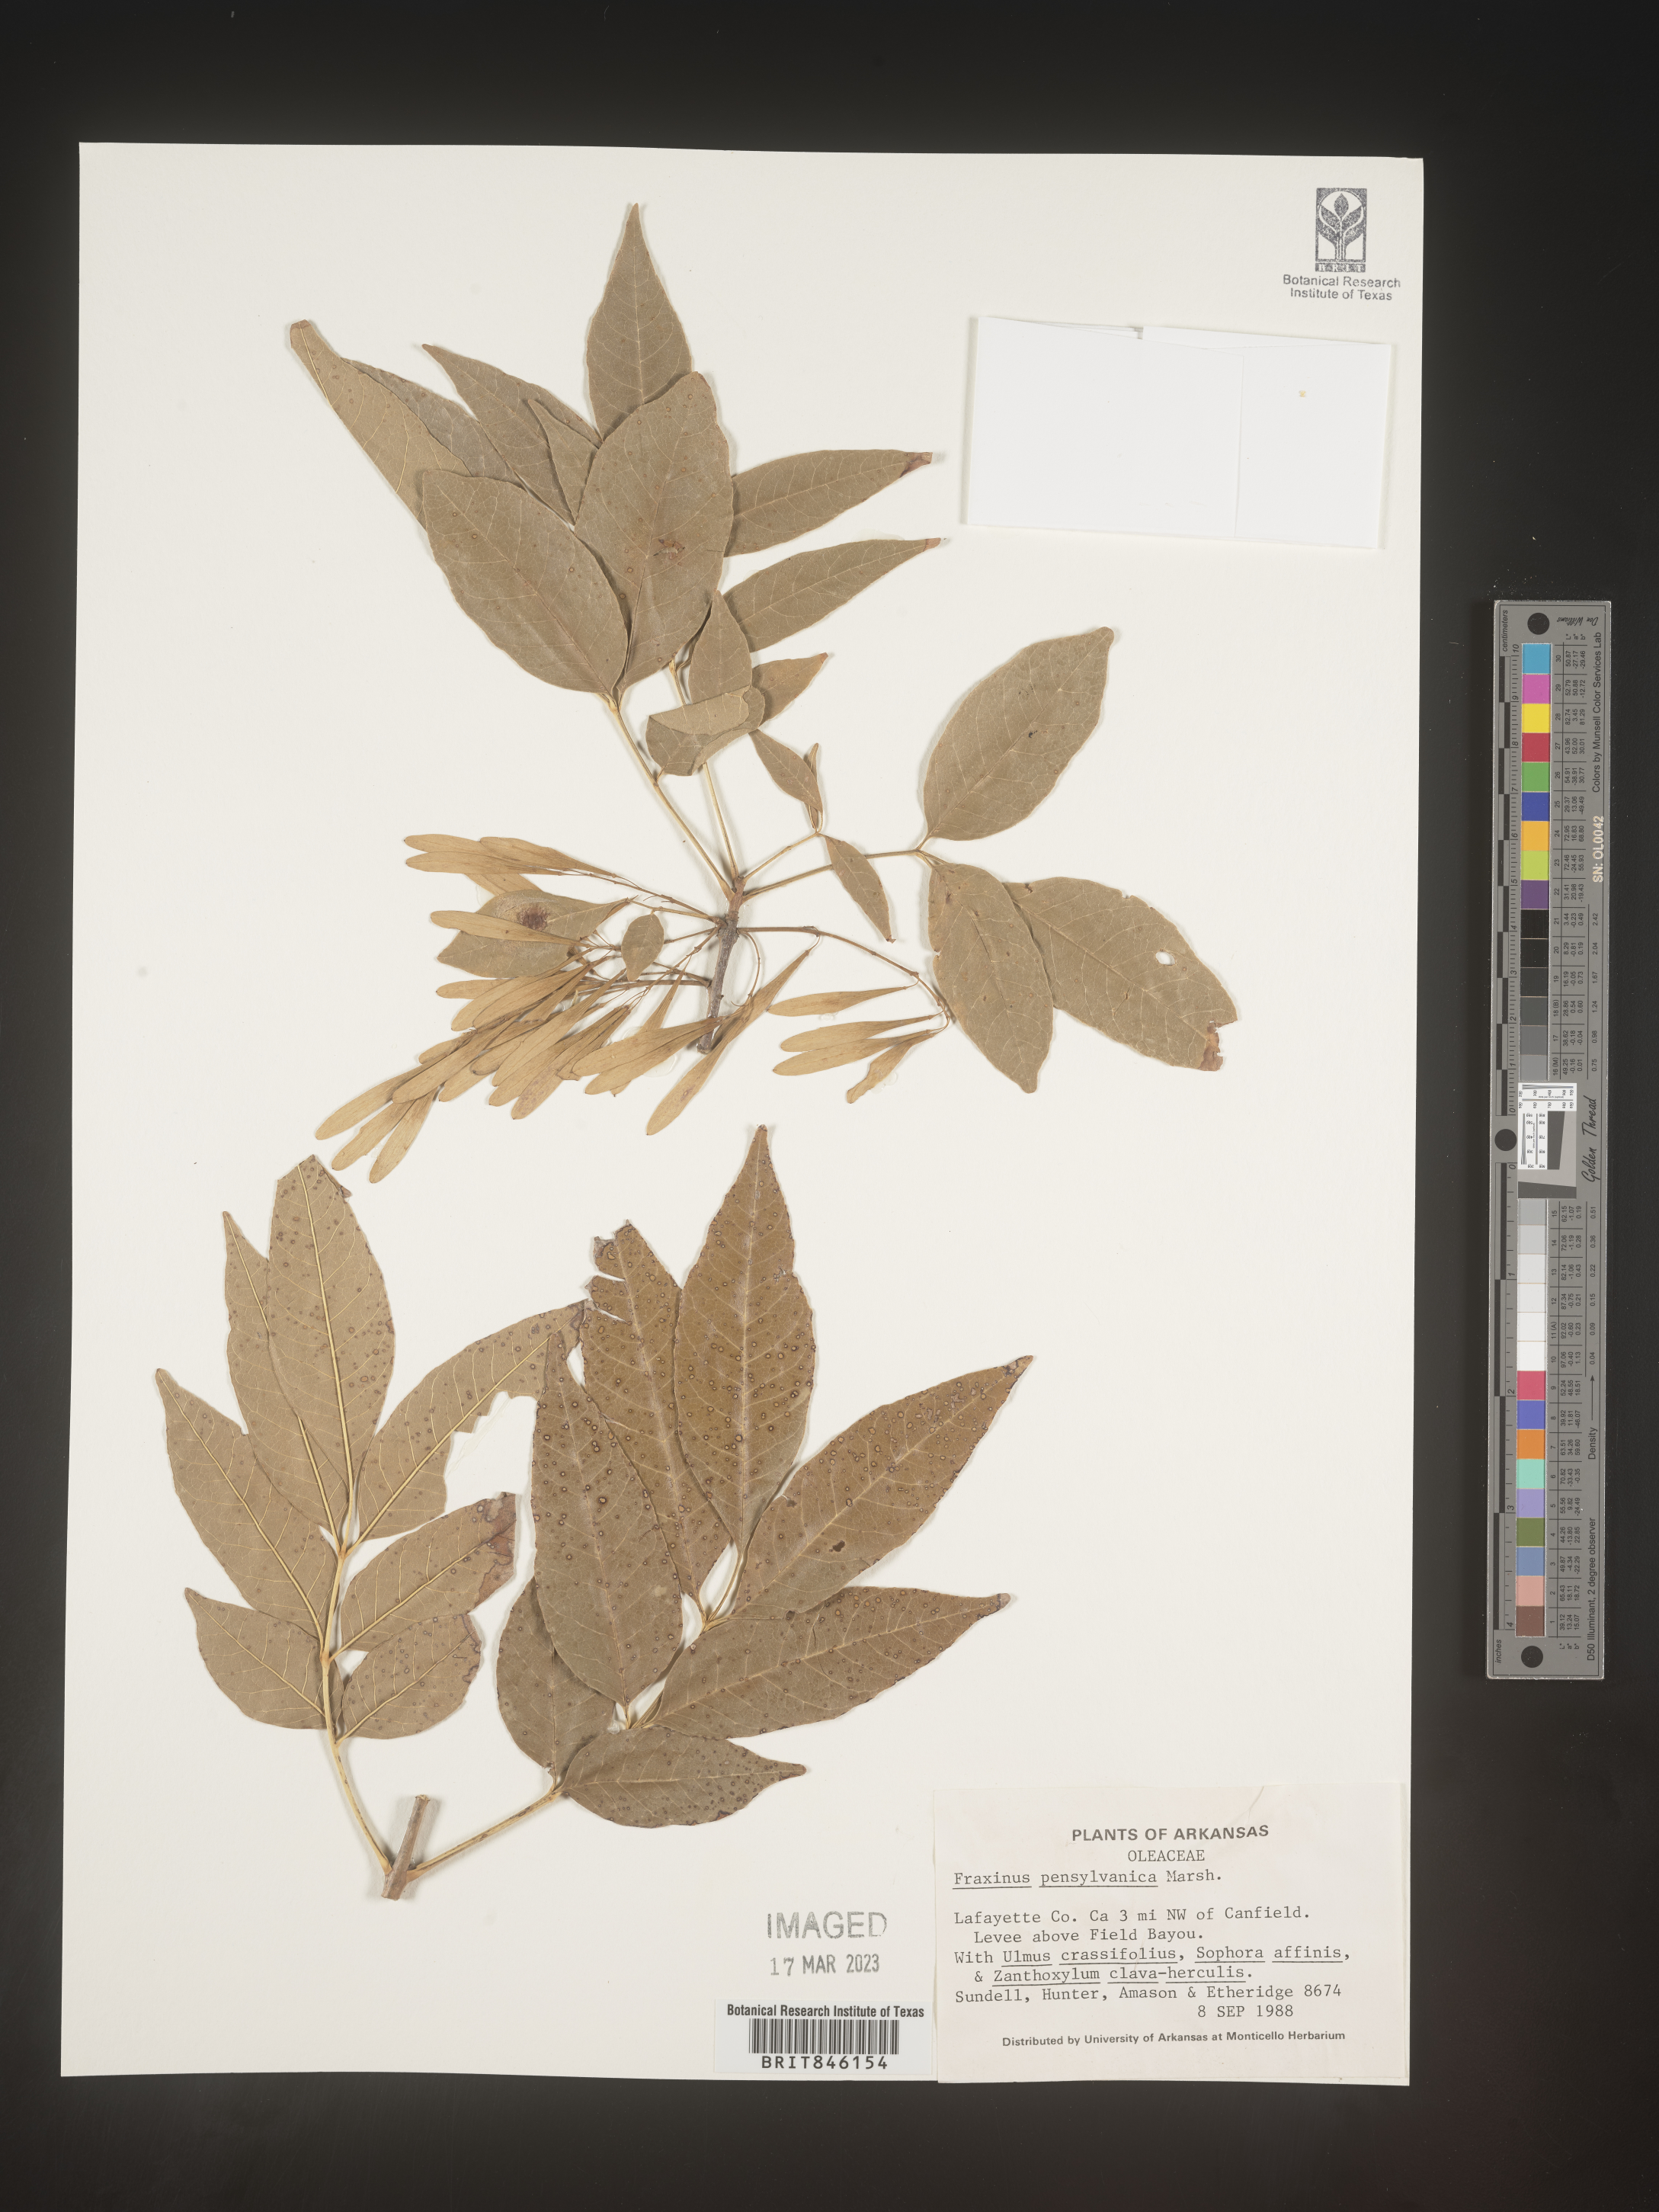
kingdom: Plantae
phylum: Tracheophyta
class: Magnoliopsida
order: Lamiales
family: Oleaceae
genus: Fraxinus
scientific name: Fraxinus pennsylvanica
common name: Green ash
